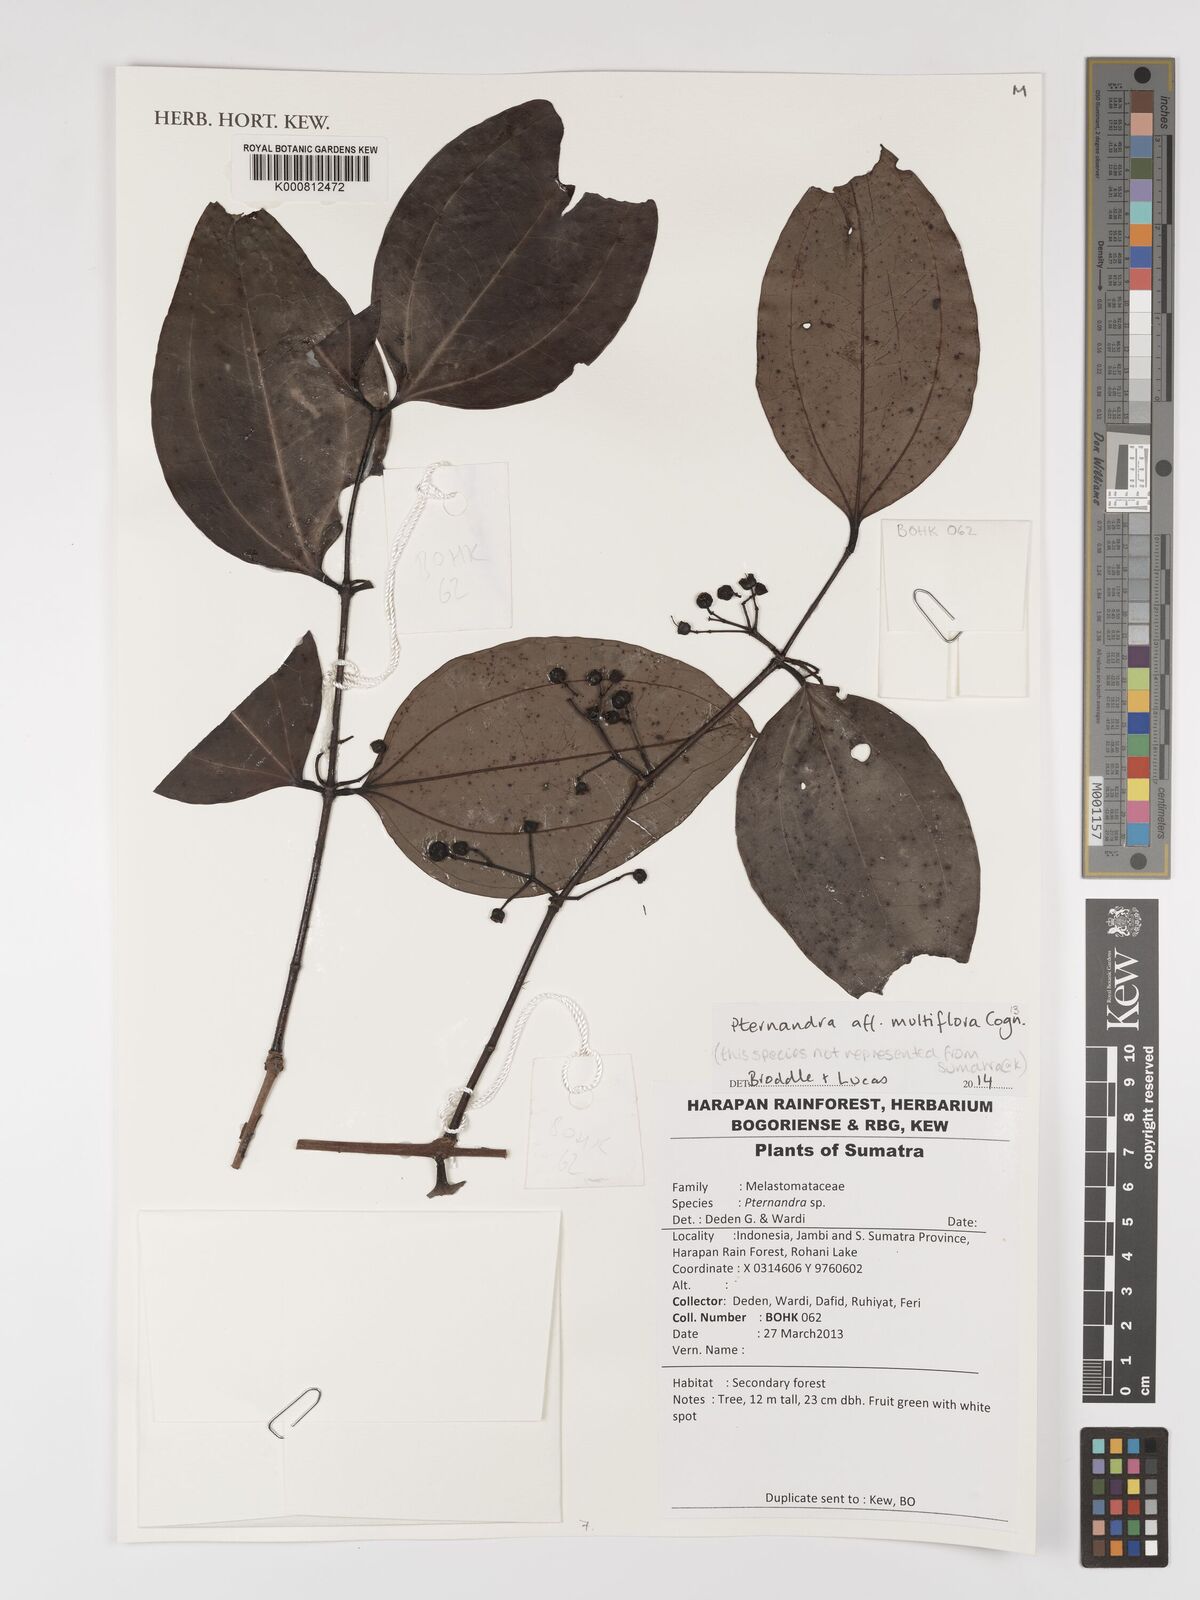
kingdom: Plantae
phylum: Tracheophyta
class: Magnoliopsida
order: Myrtales
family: Melastomataceae
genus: Pternandra
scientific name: Pternandra multiflora
